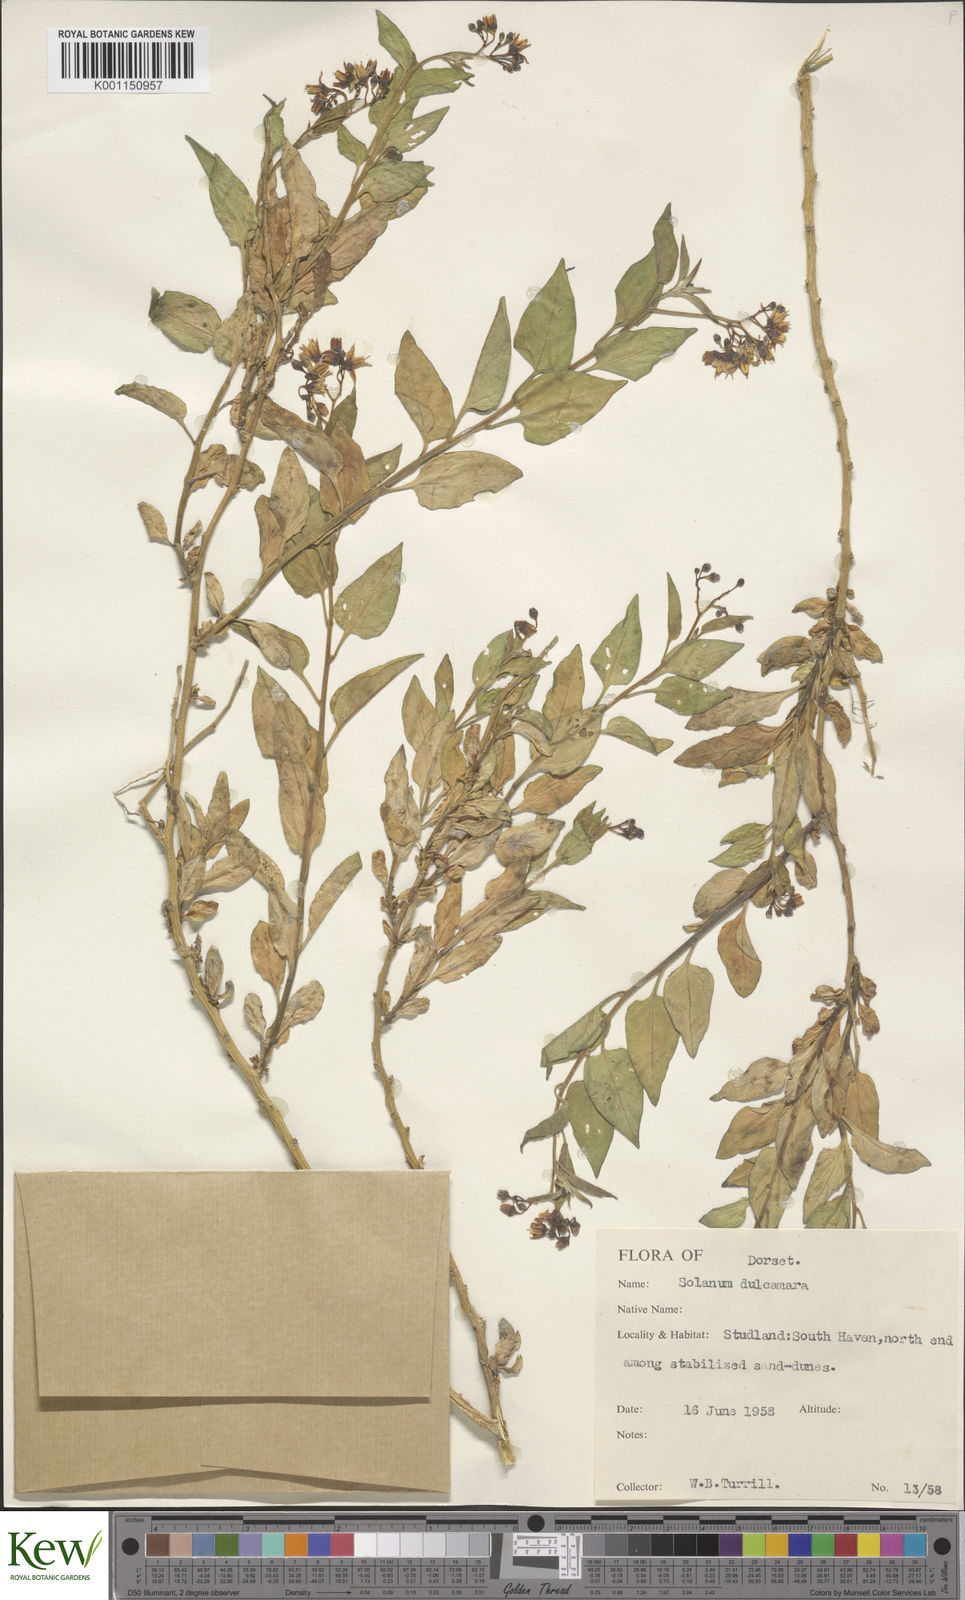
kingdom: Plantae
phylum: Tracheophyta
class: Magnoliopsida
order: Solanales
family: Solanaceae
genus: Solanum
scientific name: Solanum dulcamara
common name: Climbing nightshade
